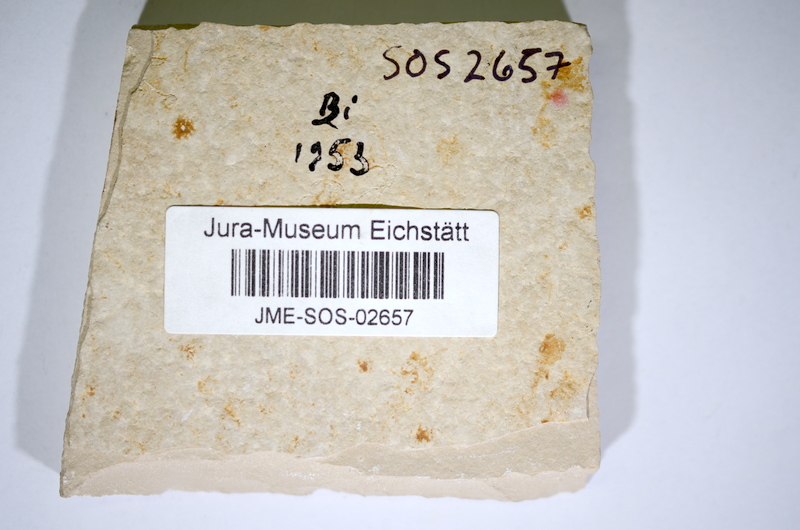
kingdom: Animalia
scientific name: Animalia
